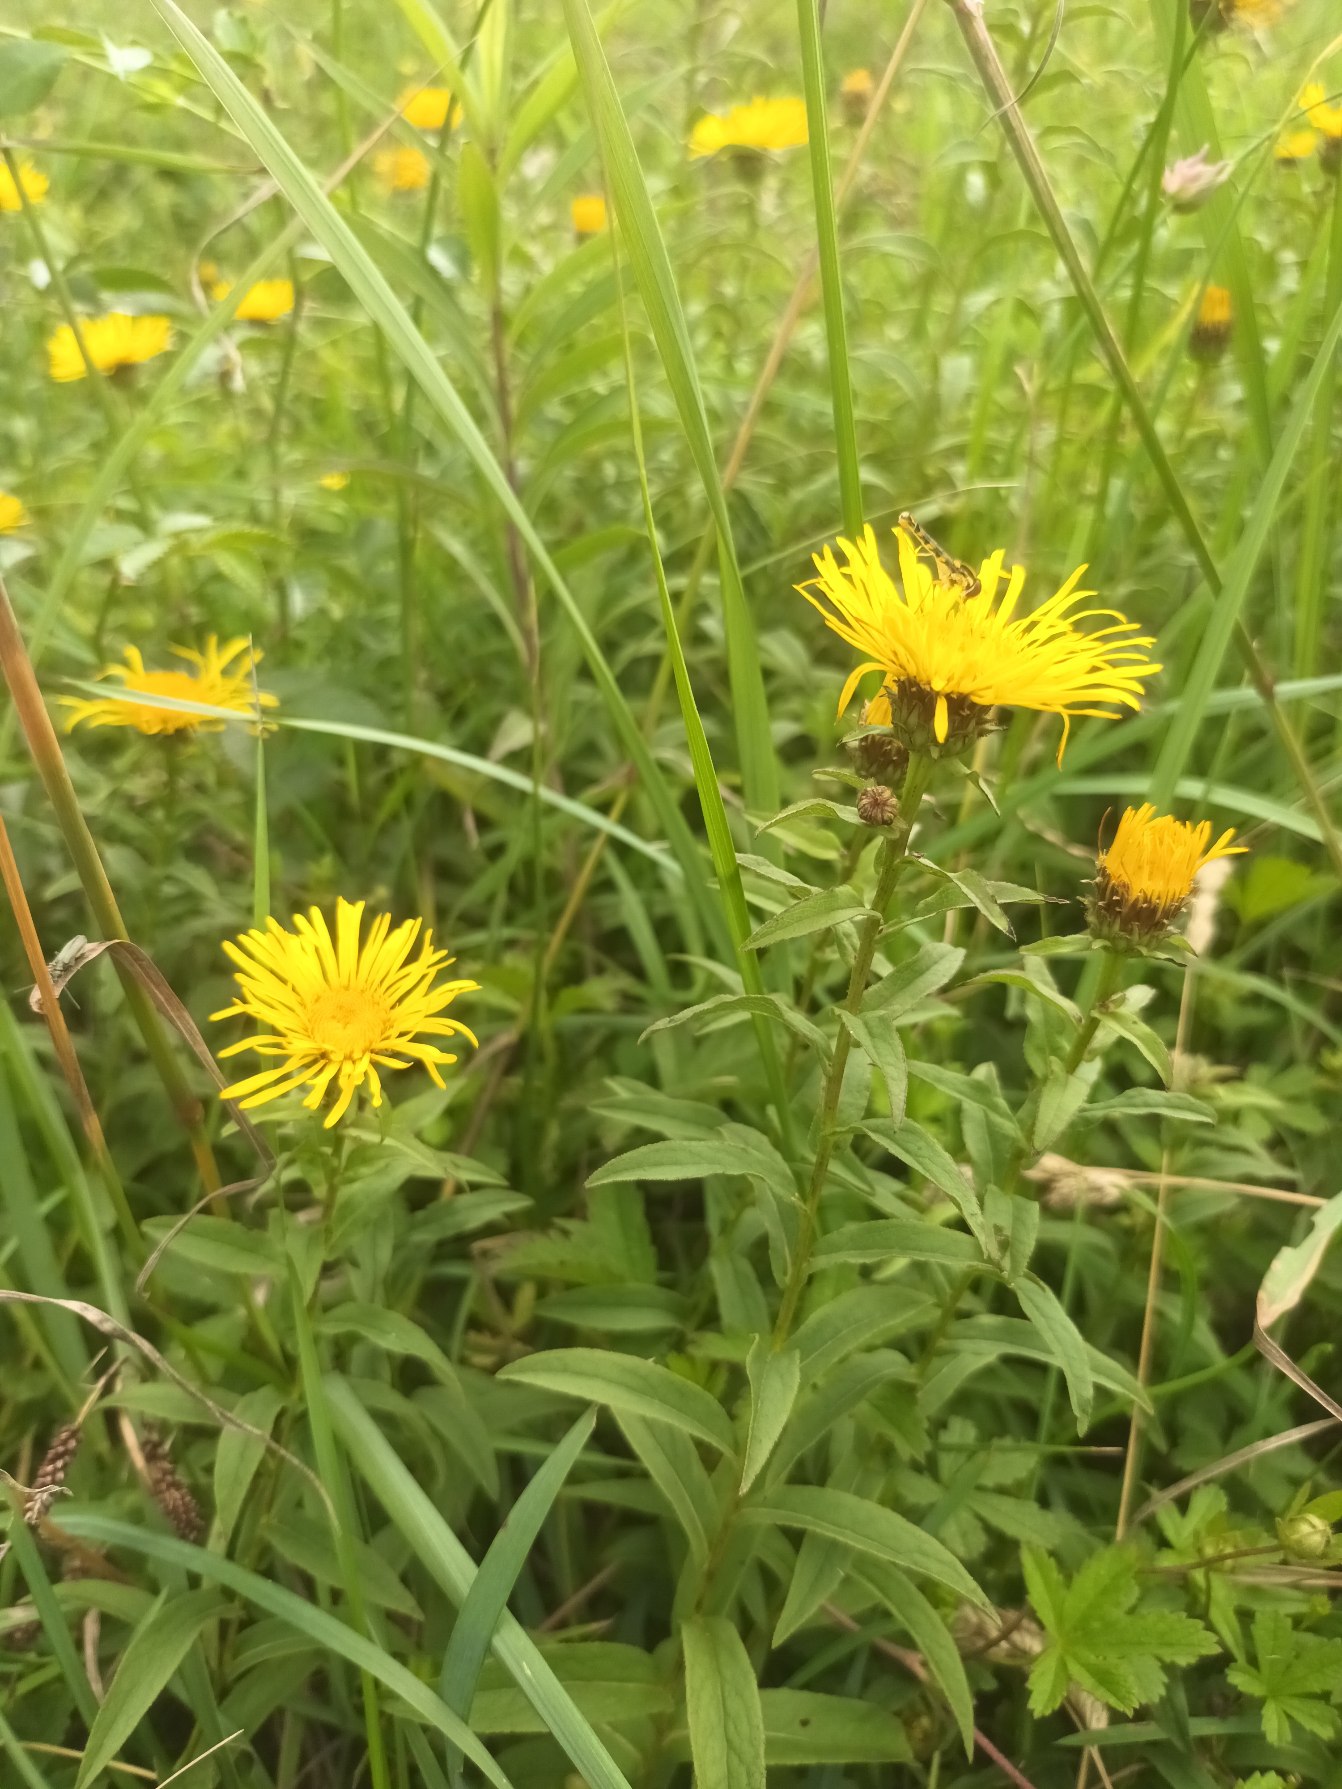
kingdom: Plantae
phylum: Tracheophyta
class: Magnoliopsida
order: Asterales
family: Asteraceae
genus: Pentanema
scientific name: Pentanema salicinum
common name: Pile-alant
